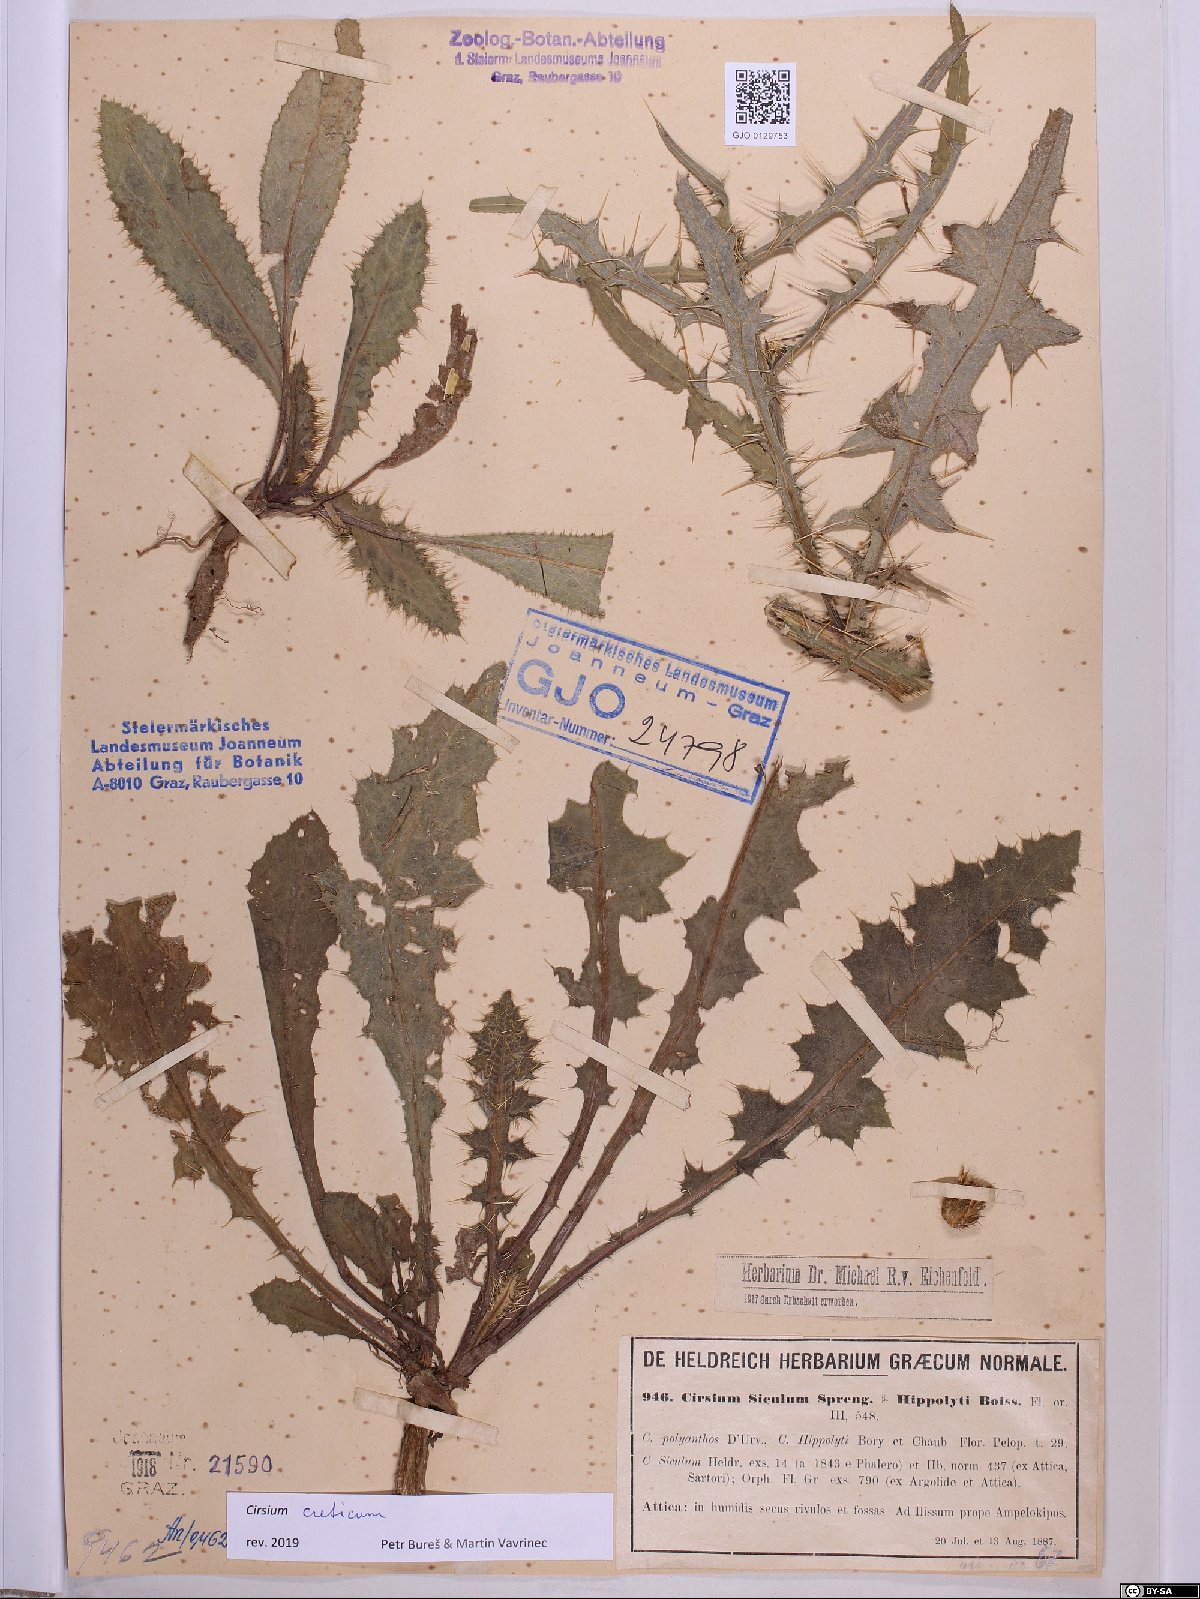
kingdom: Plantae
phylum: Tracheophyta
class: Magnoliopsida
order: Asterales
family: Asteraceae
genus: Cirsium
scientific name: Cirsium creticum
